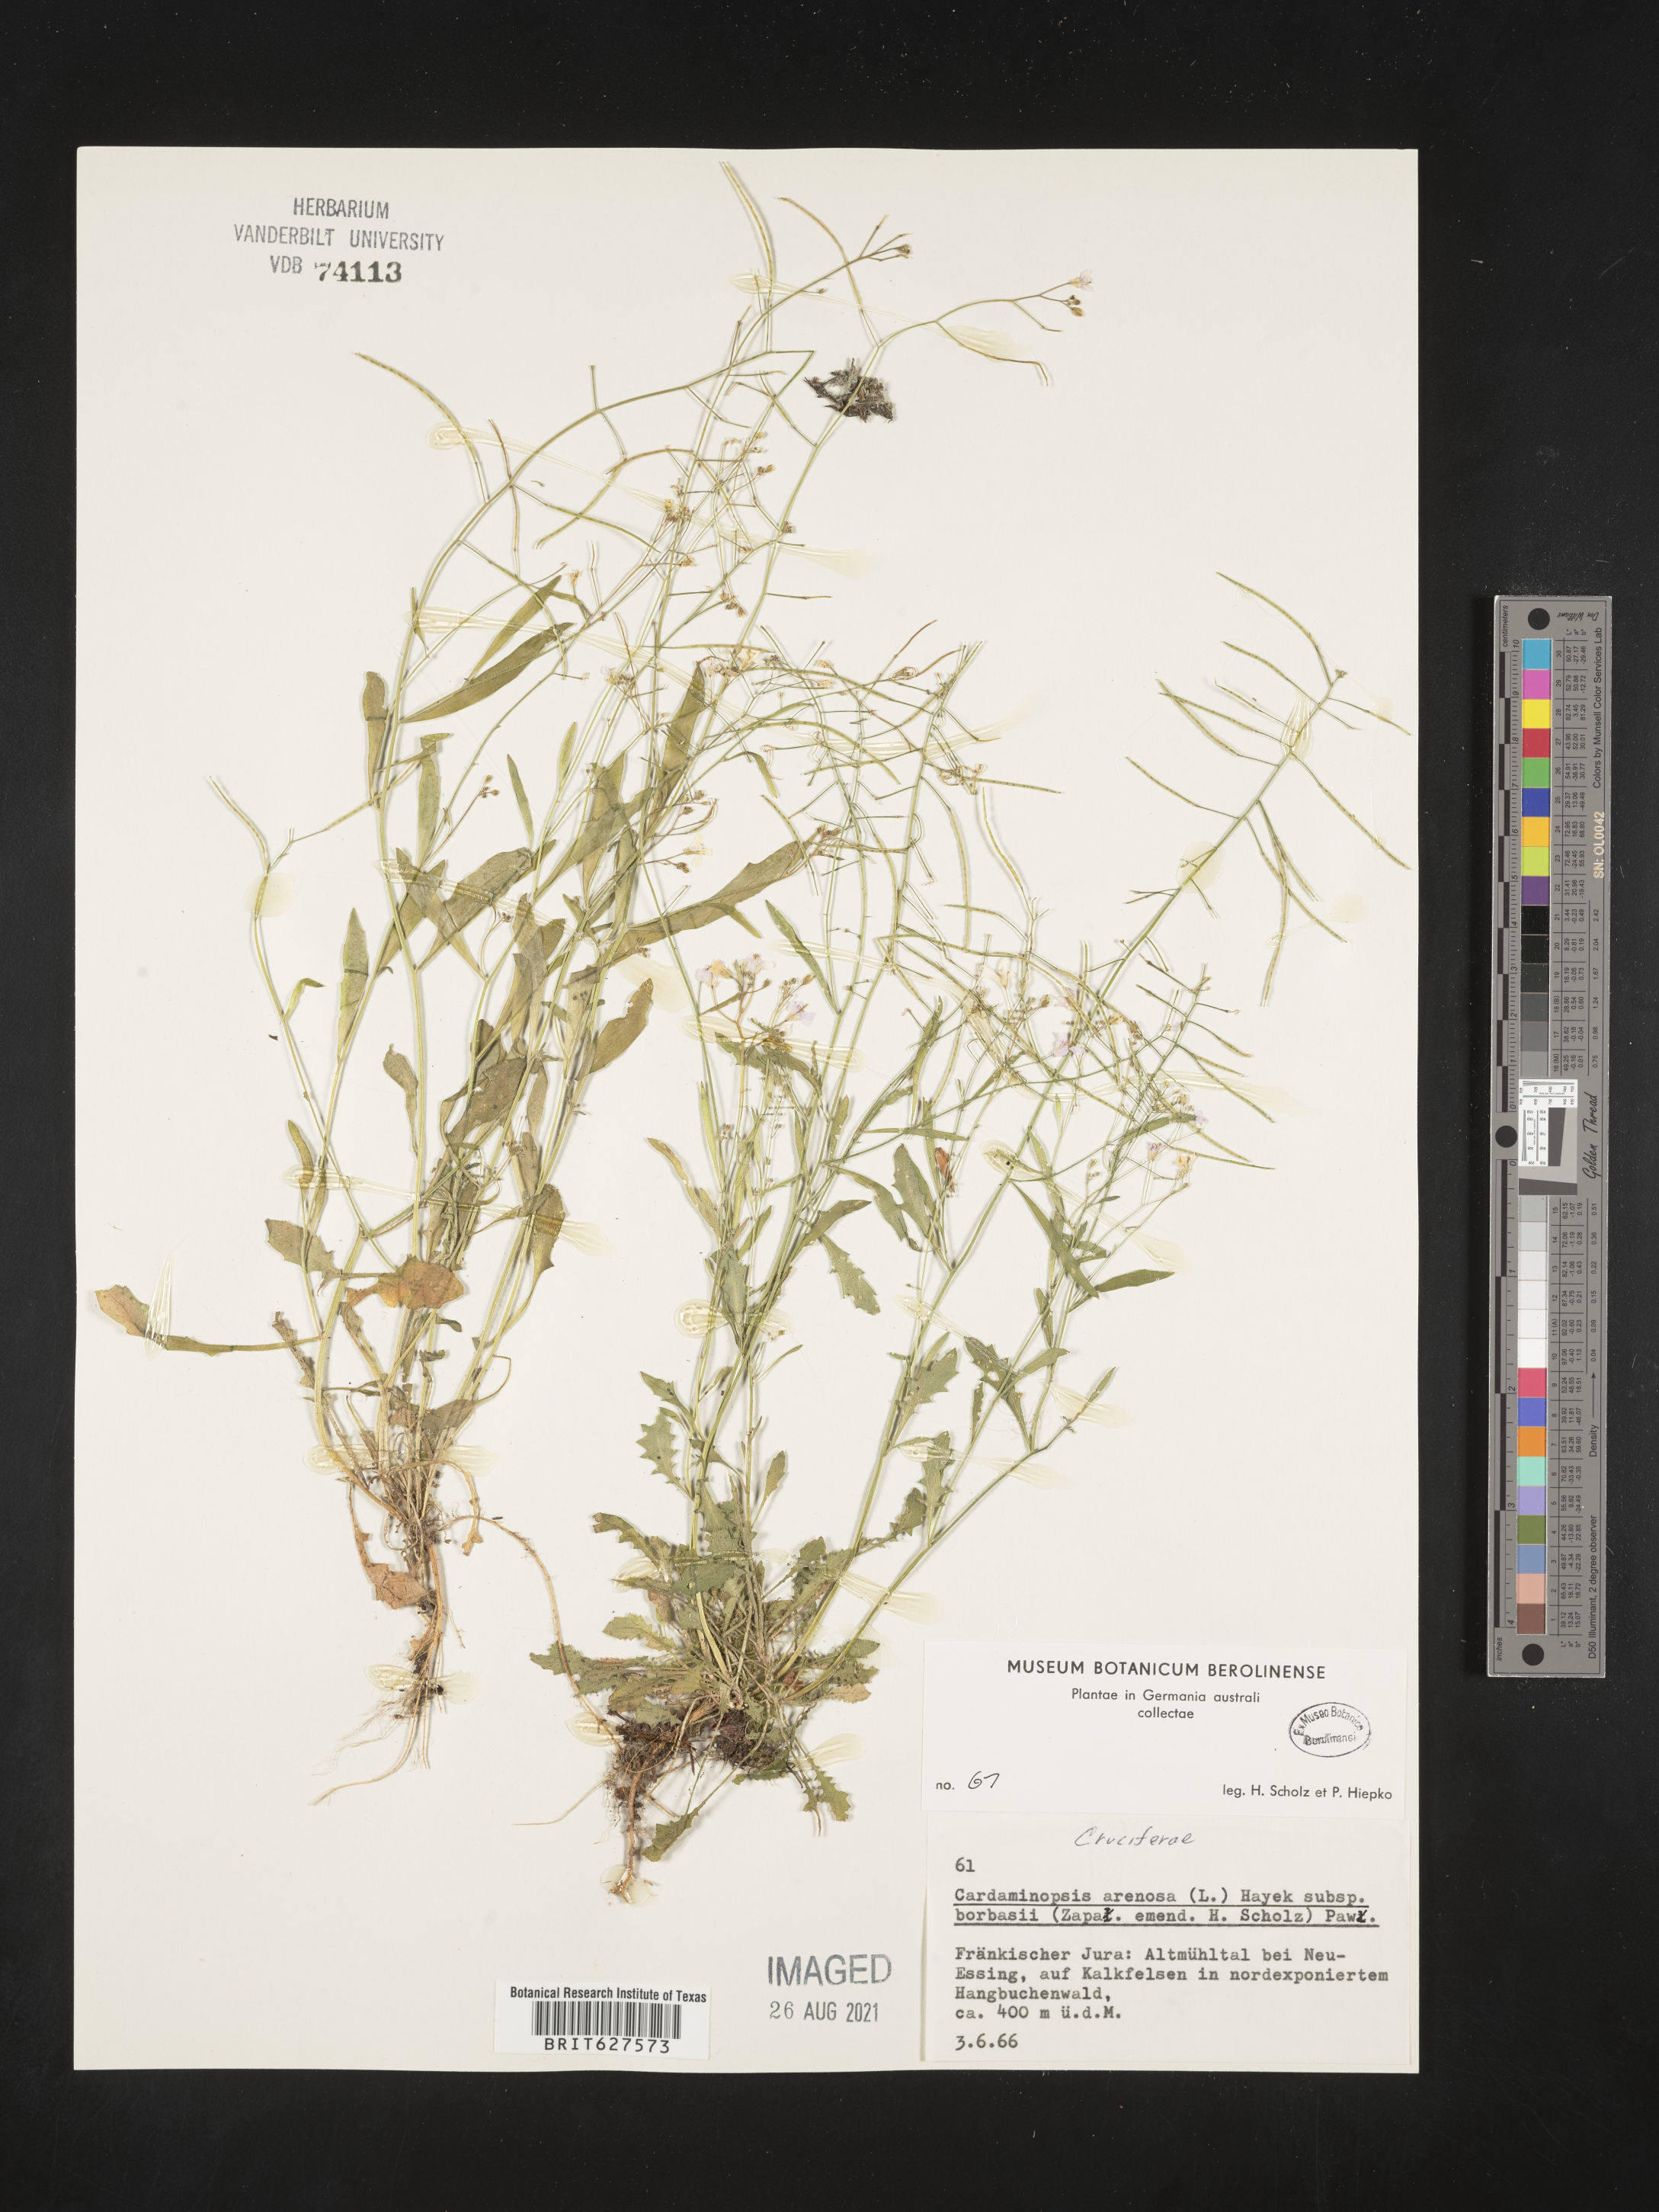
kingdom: Plantae
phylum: Tracheophyta
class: Magnoliopsida
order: Brassicales
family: Brassicaceae
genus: Arabidopsis
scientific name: Arabidopsis arenosa
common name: Sand rock-cress
